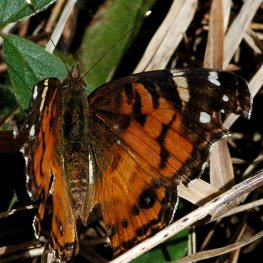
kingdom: Animalia
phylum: Arthropoda
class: Insecta
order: Lepidoptera
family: Nymphalidae
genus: Vanessa
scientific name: Vanessa virginiensis
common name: American Lady
